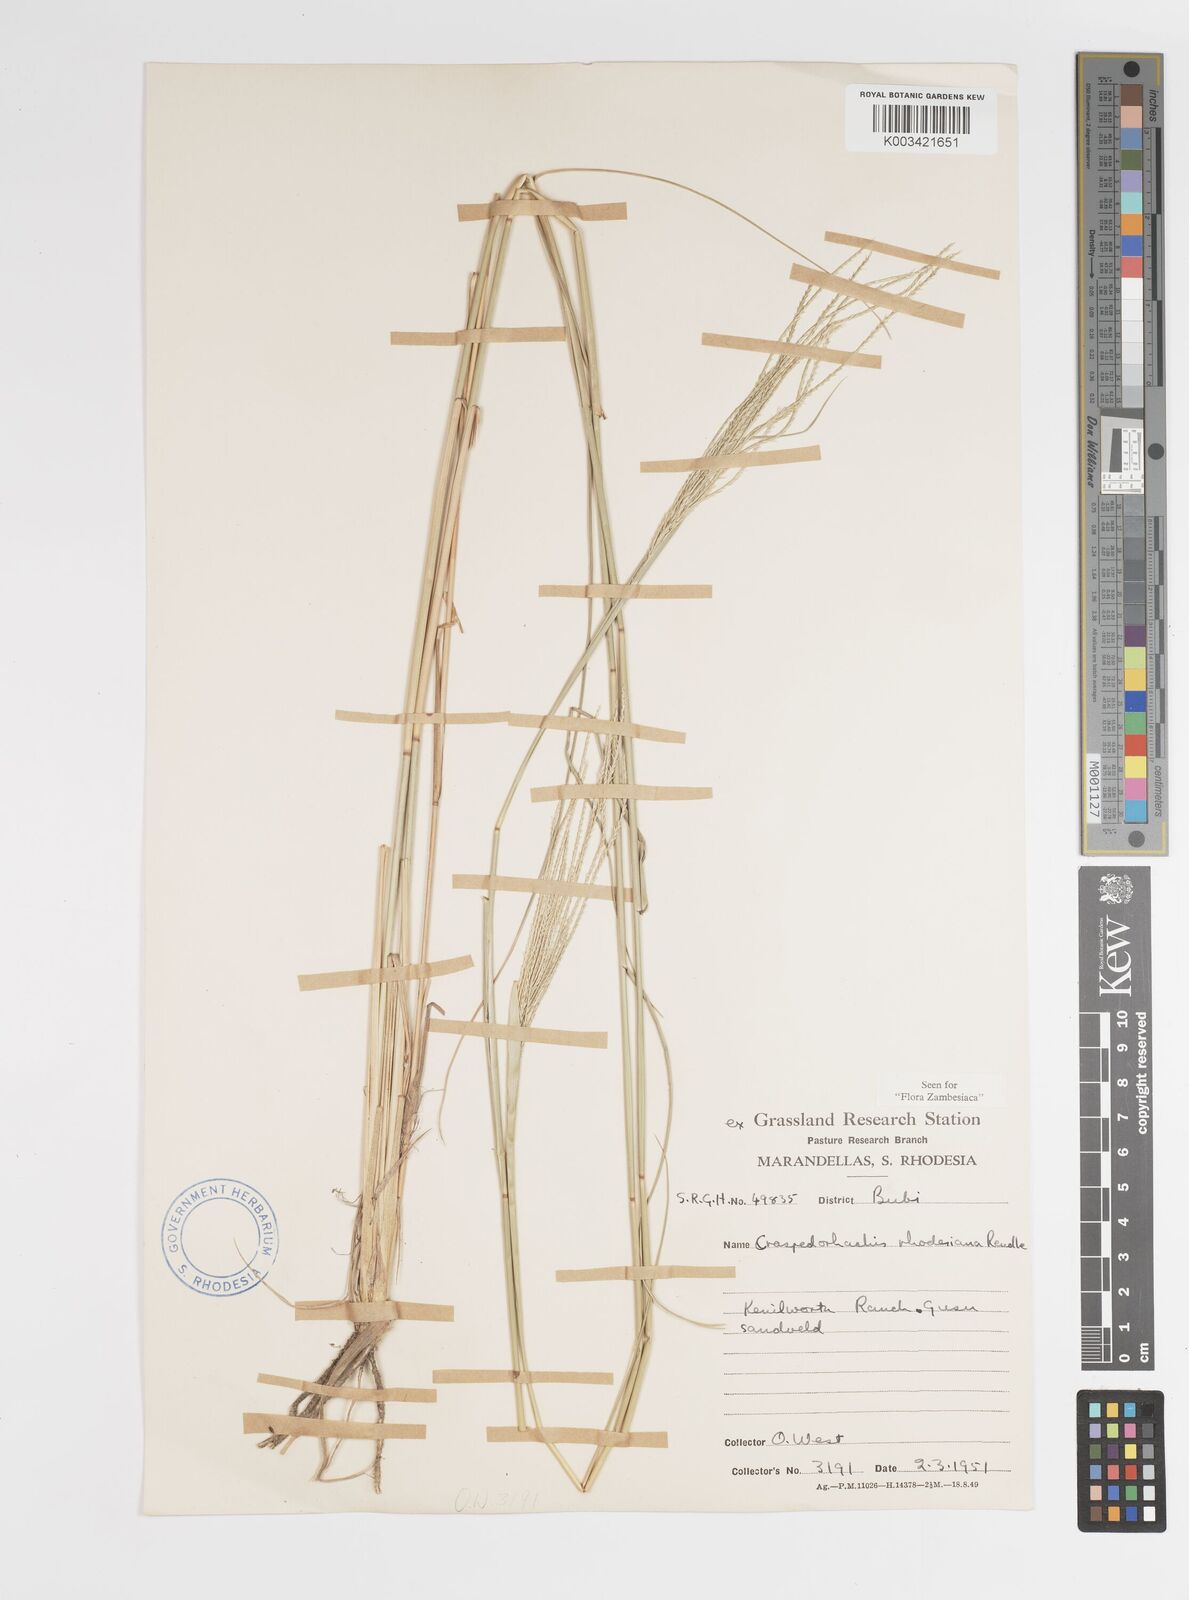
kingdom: Plantae
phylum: Tracheophyta
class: Liliopsida
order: Poales
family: Poaceae
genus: Craspedorhachis
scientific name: Craspedorhachis rhodesiana
